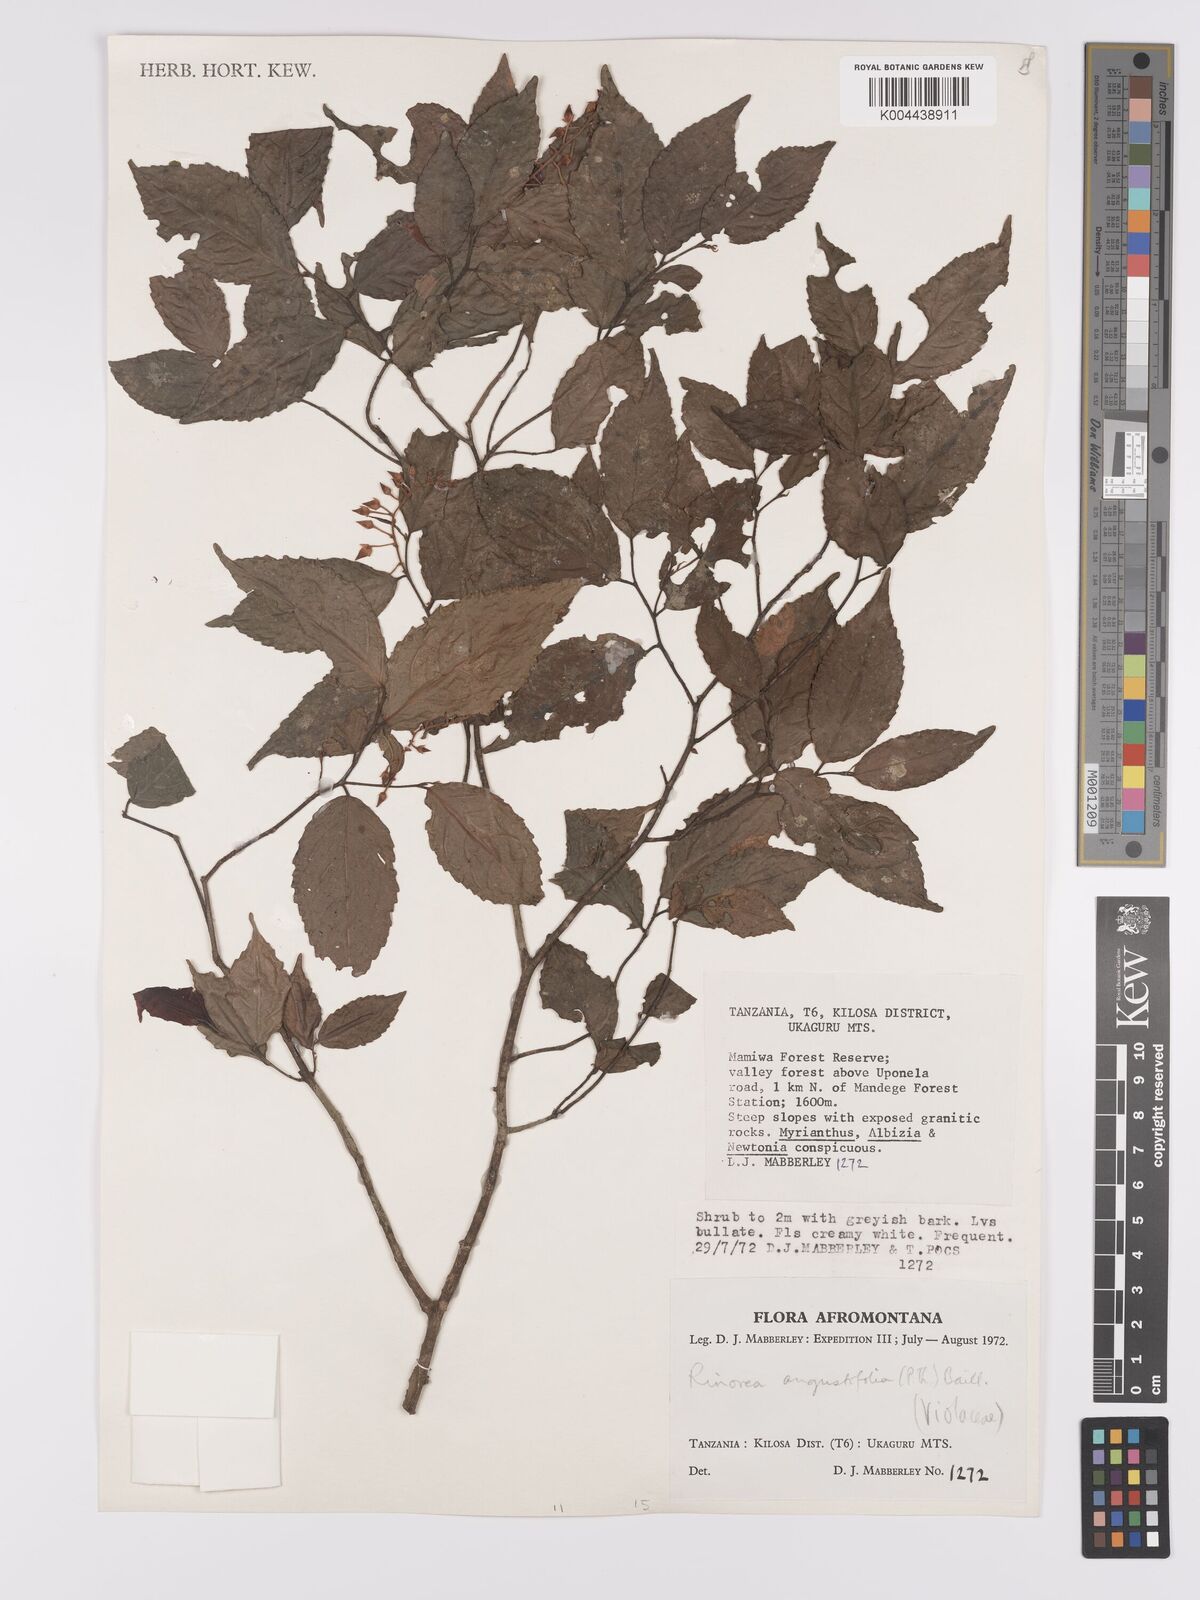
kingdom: Plantae
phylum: Tracheophyta
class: Magnoliopsida
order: Malpighiales
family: Violaceae
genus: Rinorea
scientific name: Rinorea angustifolia
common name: White violet-bush
